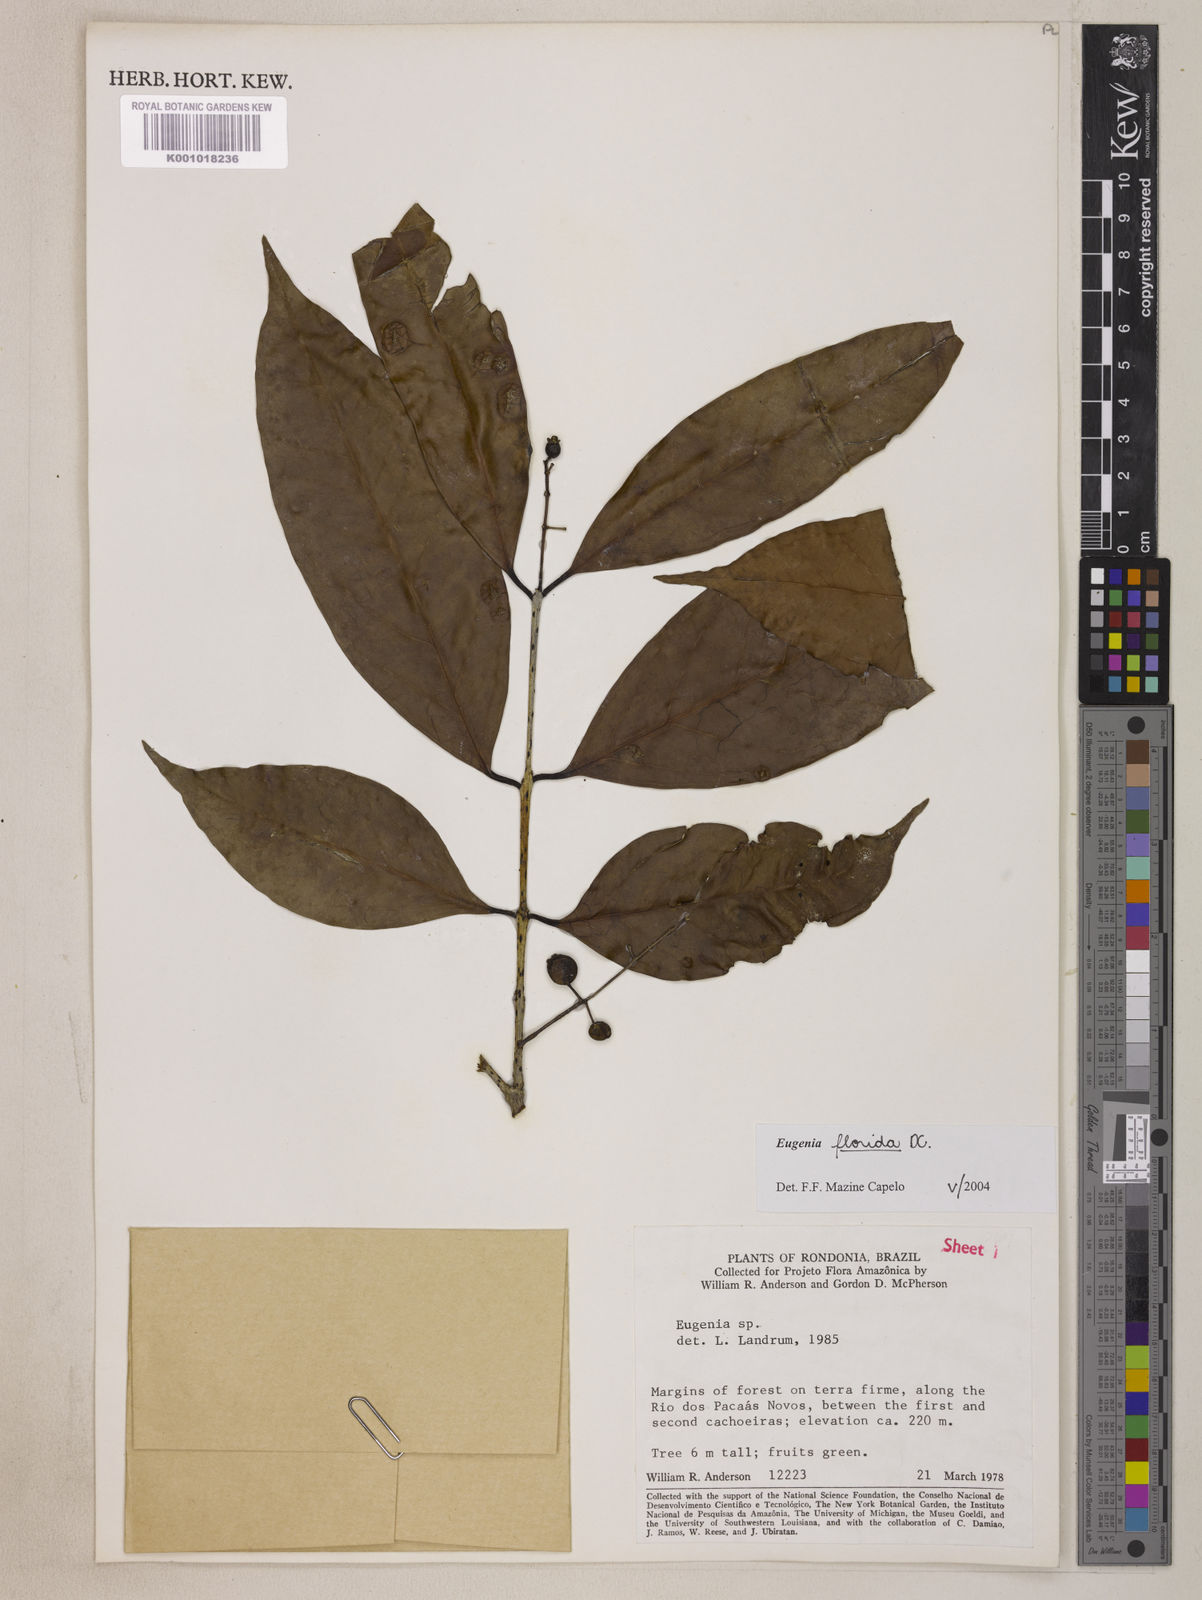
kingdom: Plantae
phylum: Tracheophyta
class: Magnoliopsida
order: Myrtales
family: Myrtaceae
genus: Eugenia
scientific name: Eugenia florida
